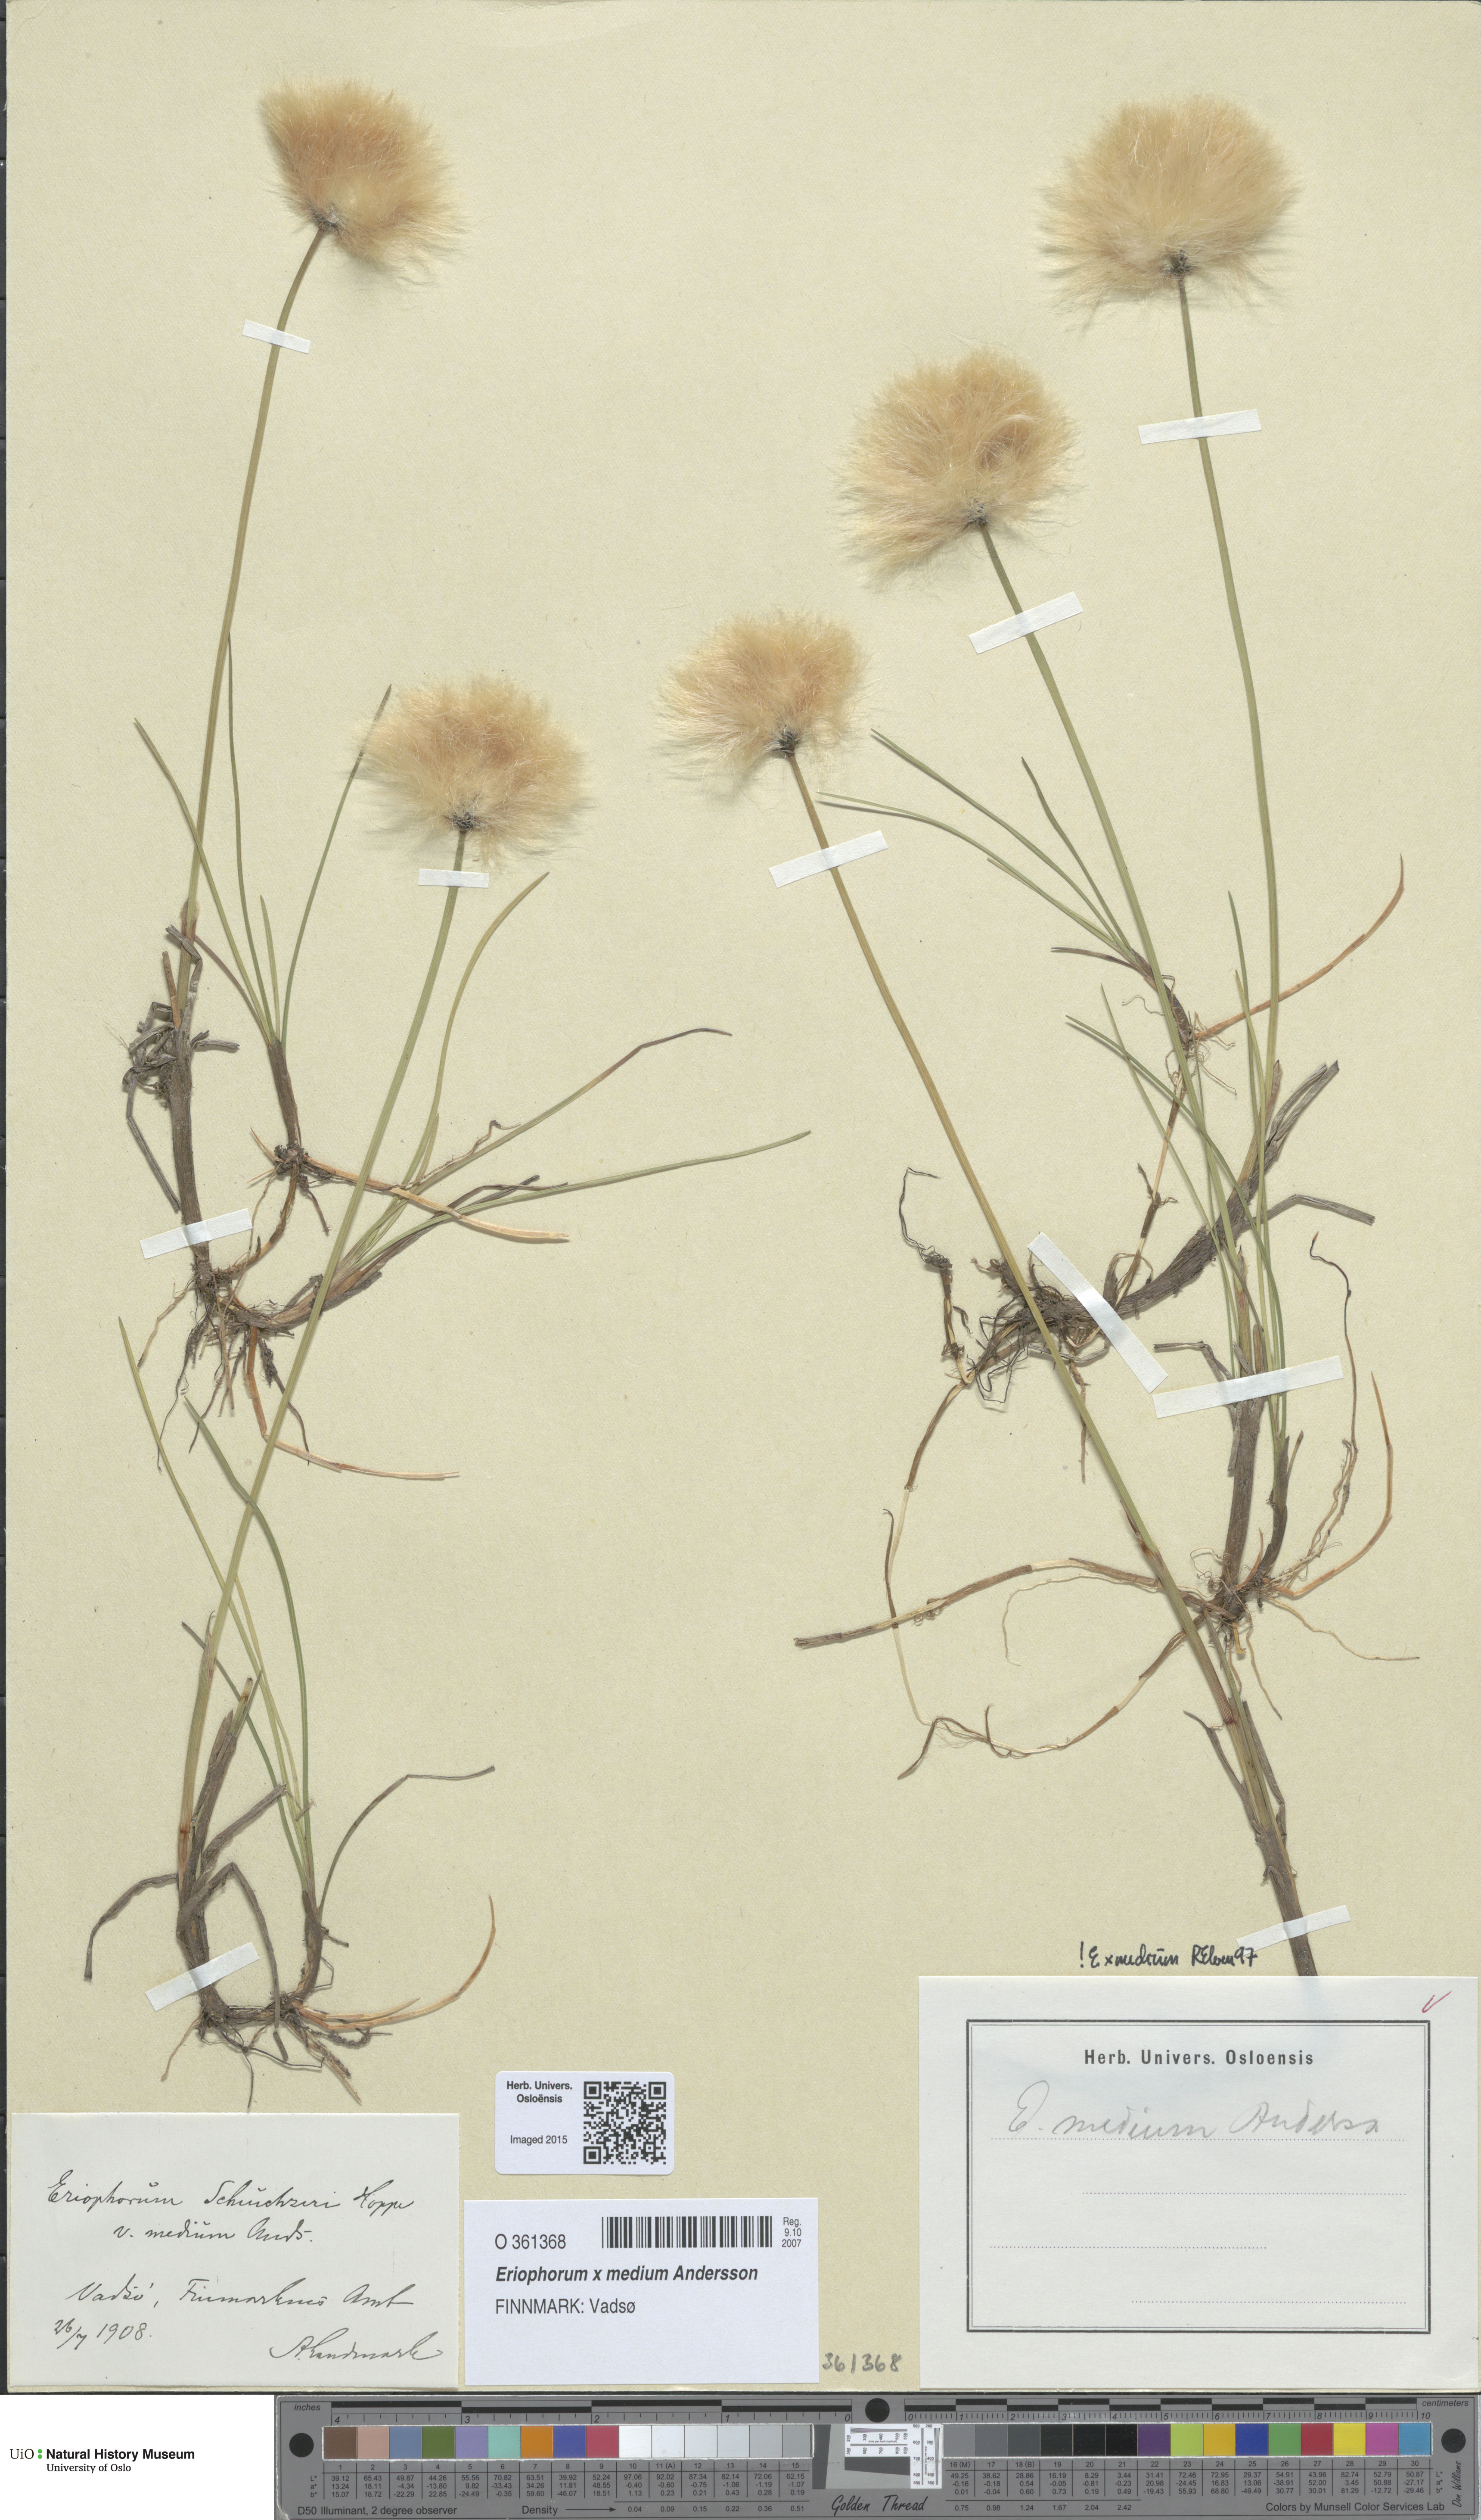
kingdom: Plantae
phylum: Tracheophyta
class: Liliopsida
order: Poales
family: Cyperaceae
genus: Eriophorum
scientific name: Eriophorum medium
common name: Intermediate cottongrass
